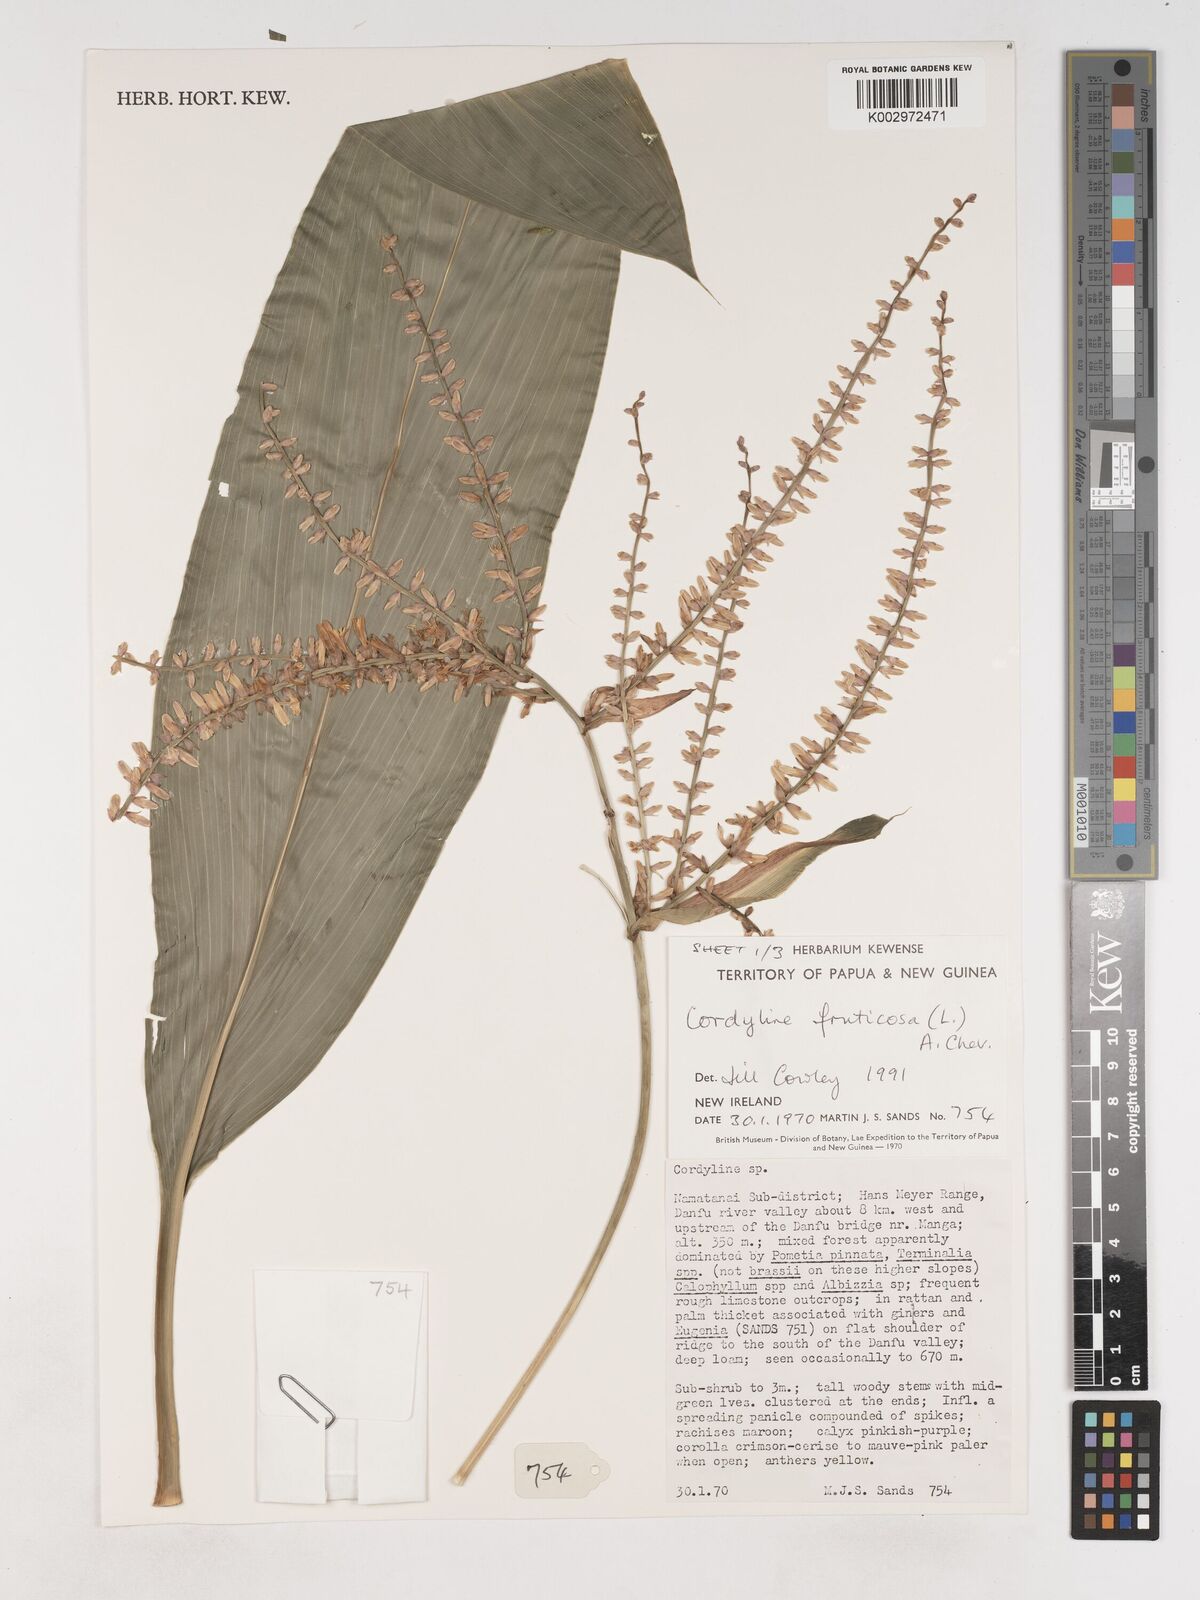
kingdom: Plantae
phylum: Tracheophyta
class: Liliopsida
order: Asparagales
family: Asparagaceae
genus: Cordyline
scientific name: Cordyline fruticosa
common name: Good-luck-plant
